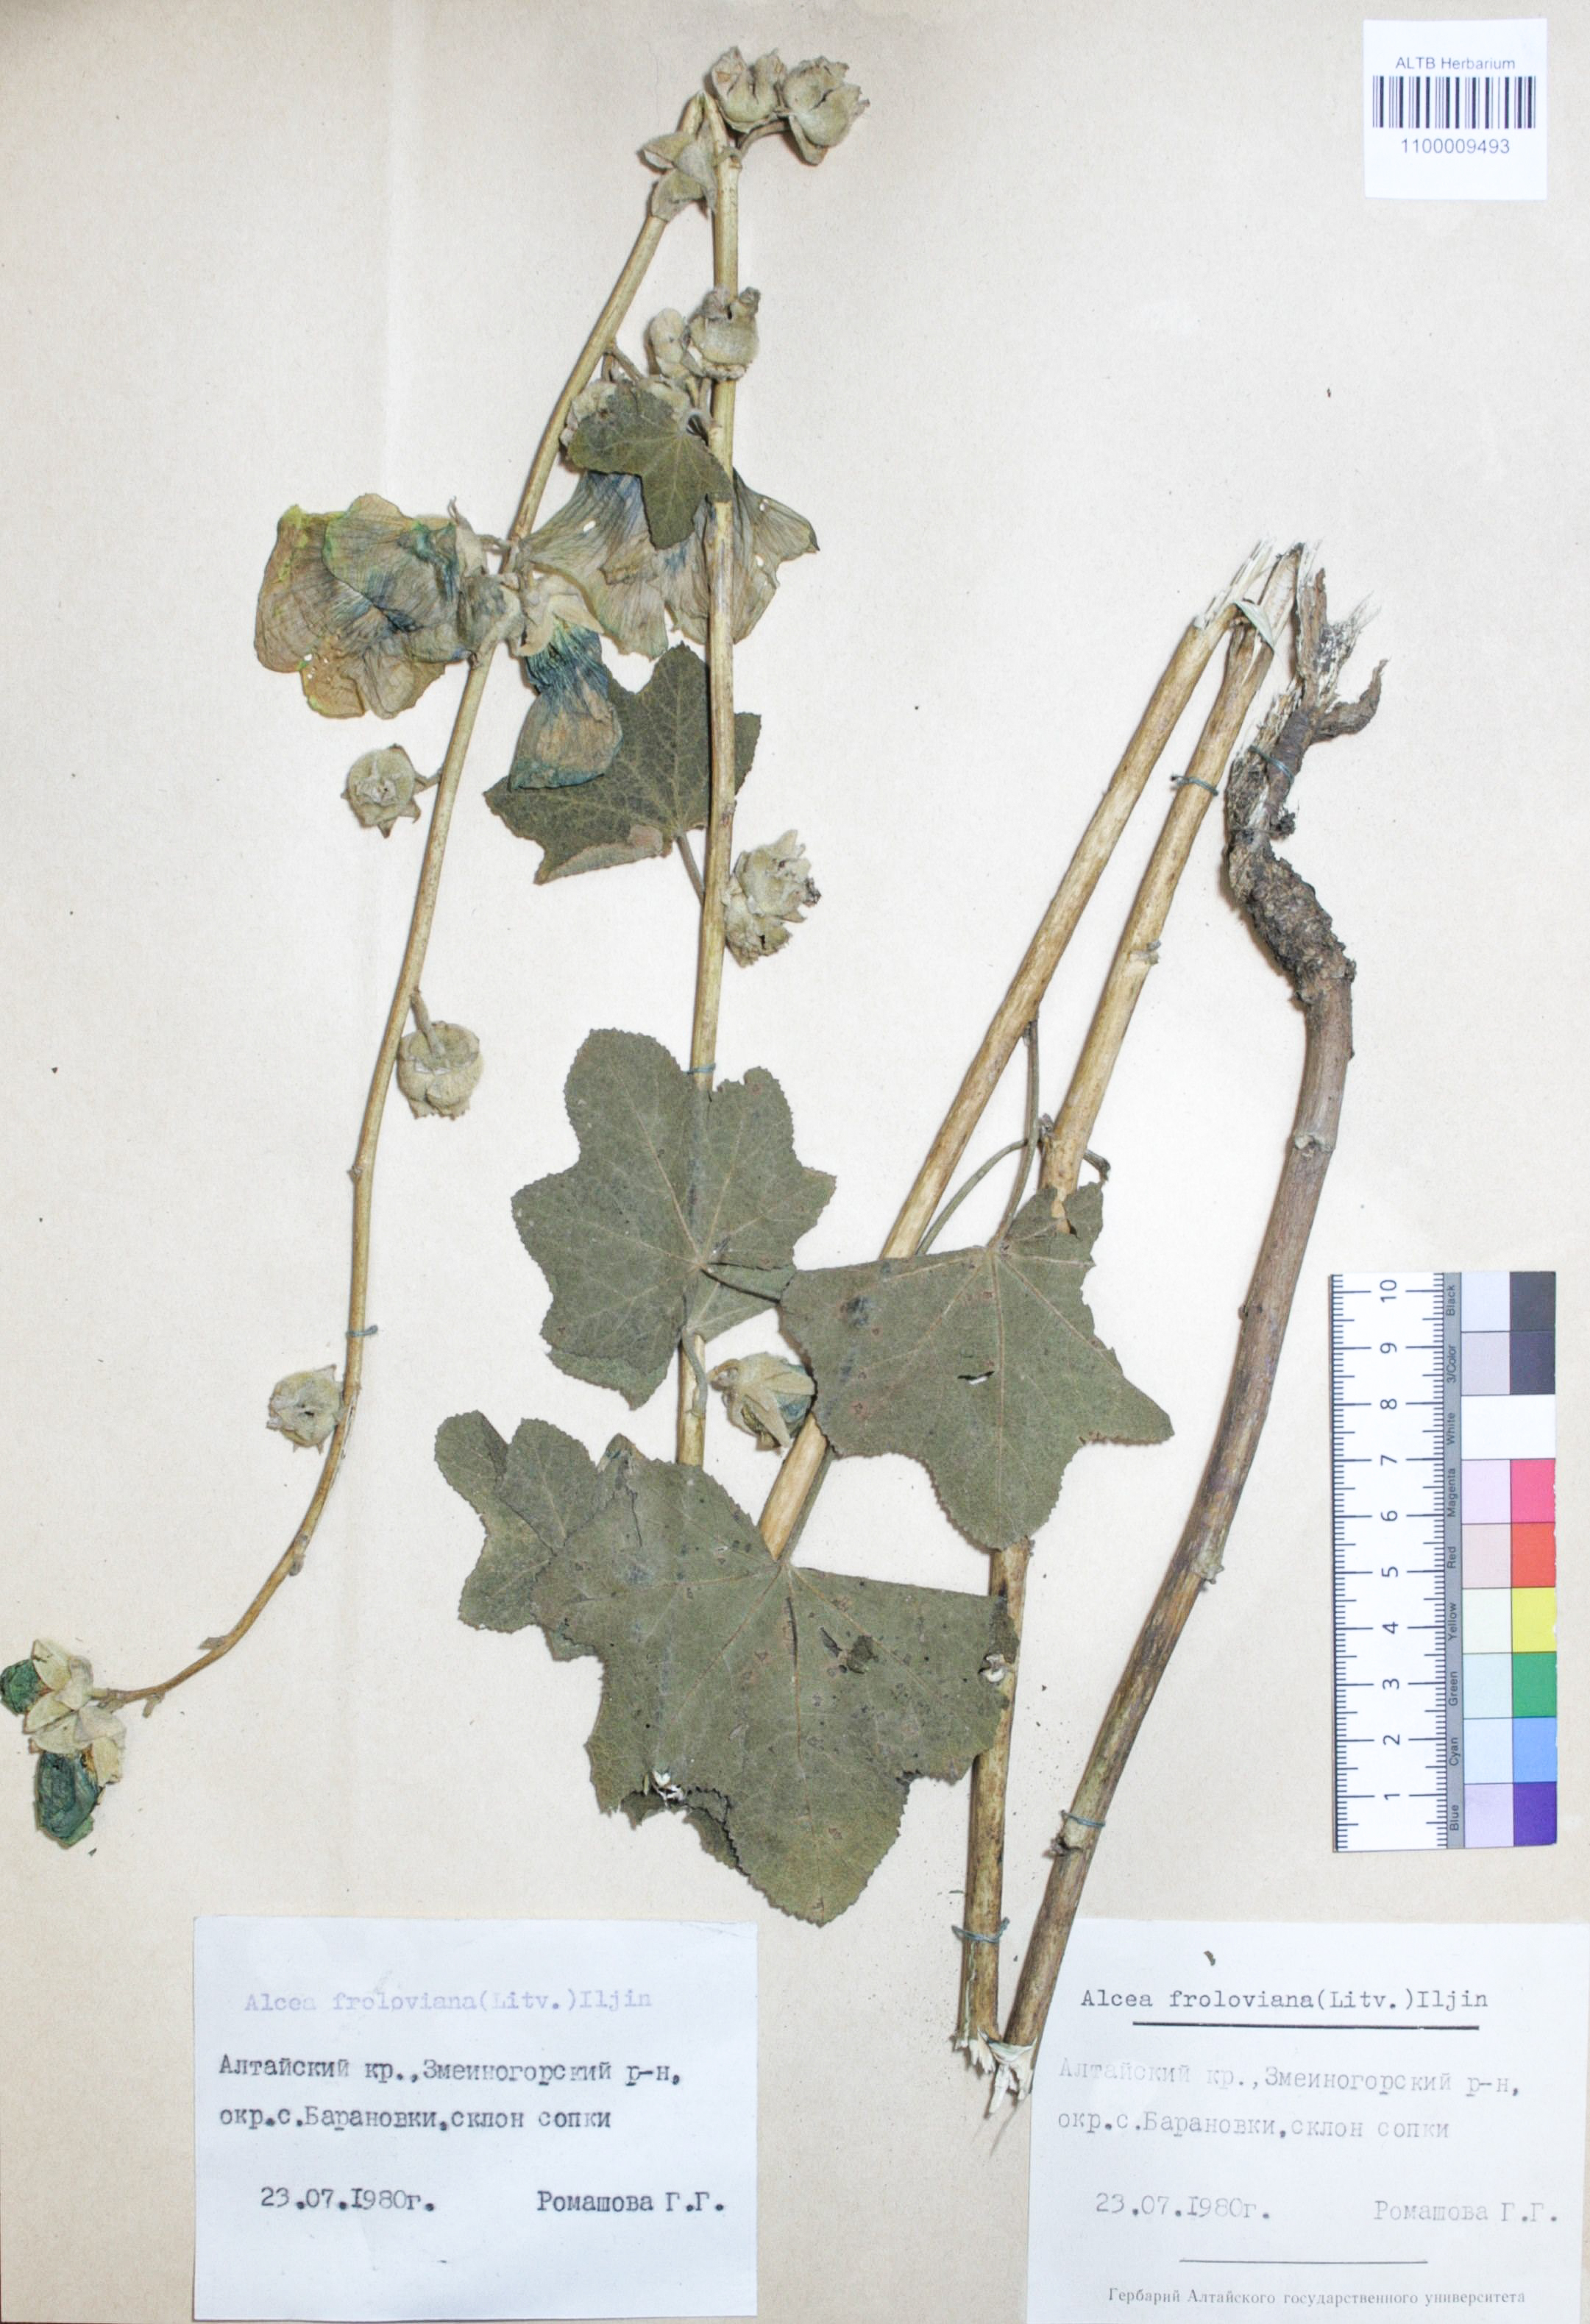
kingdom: Plantae
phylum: Tracheophyta
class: Magnoliopsida
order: Malvales
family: Malvaceae
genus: Alcea
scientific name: Alcea froloviana
